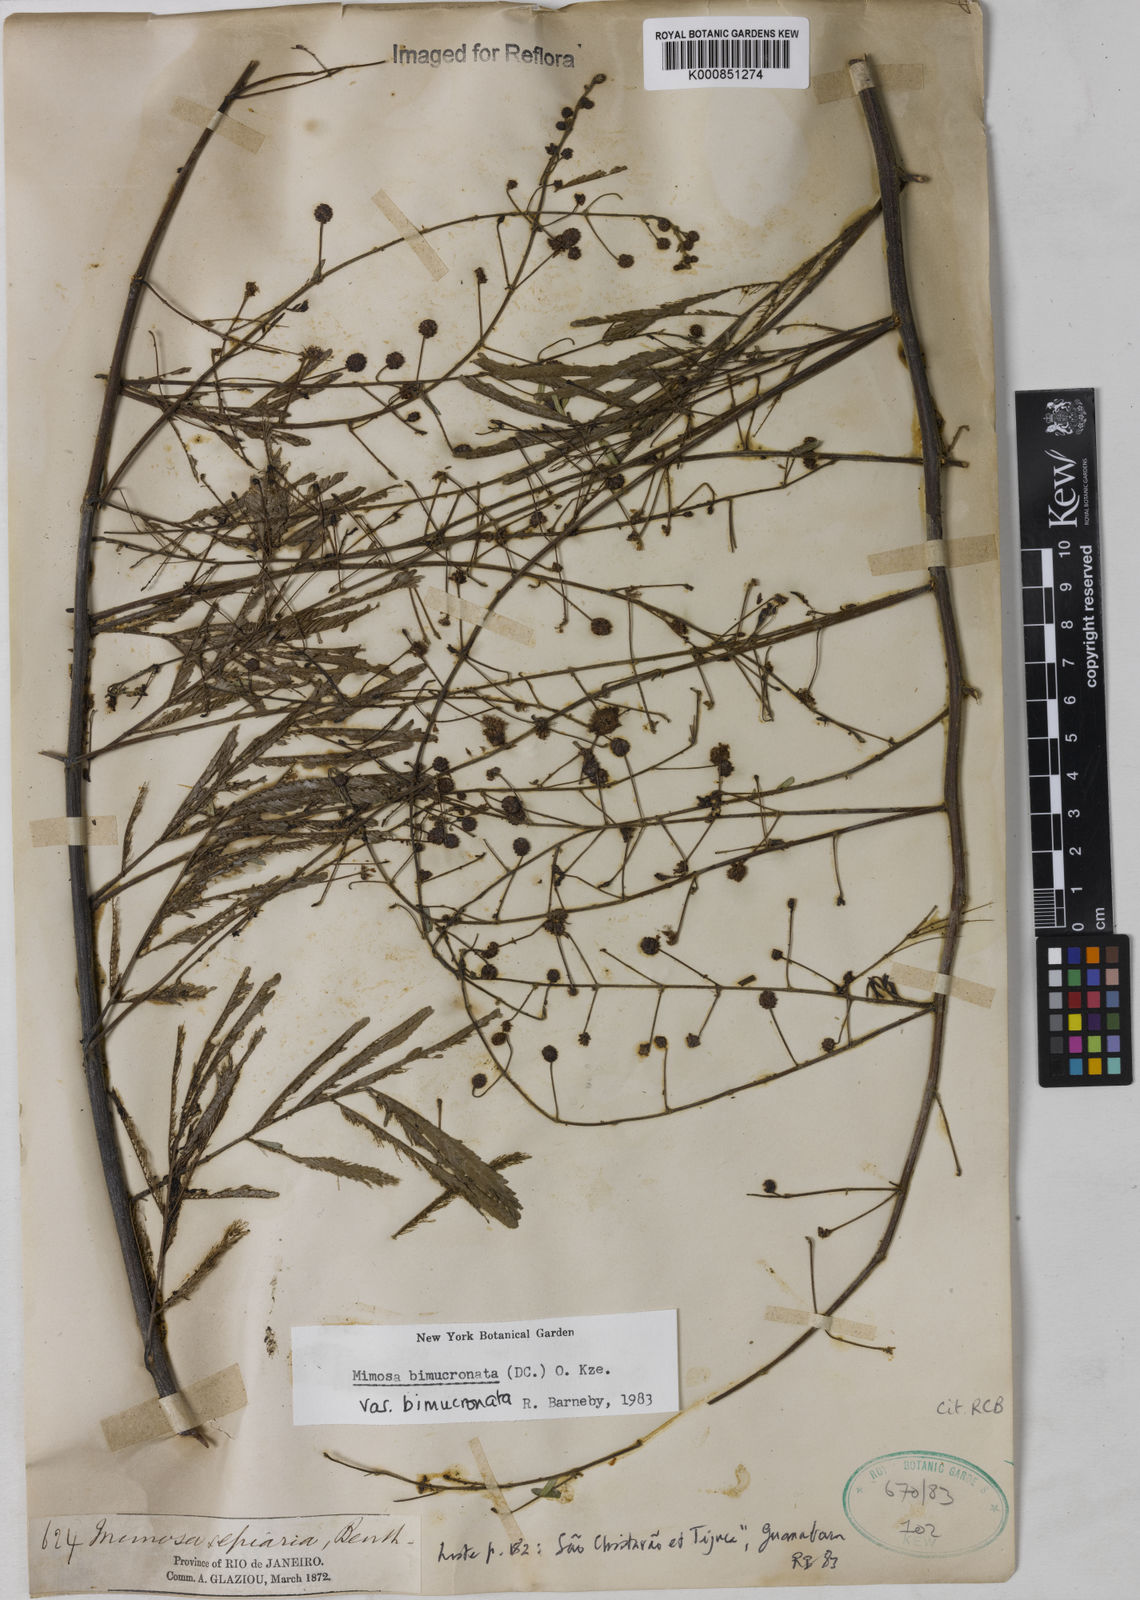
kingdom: Plantae
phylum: Tracheophyta
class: Magnoliopsida
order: Fabales
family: Fabaceae
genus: Mimosa
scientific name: Mimosa bimucronata
